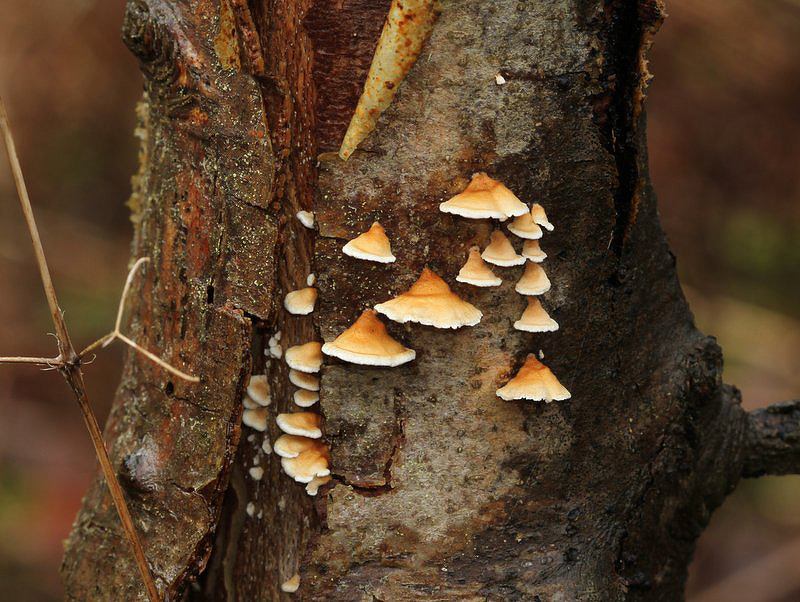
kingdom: Fungi
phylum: Basidiomycota
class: Agaricomycetes
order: Amylocorticiales
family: Amylocorticiaceae
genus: Plicaturopsis
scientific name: Plicaturopsis crispa
